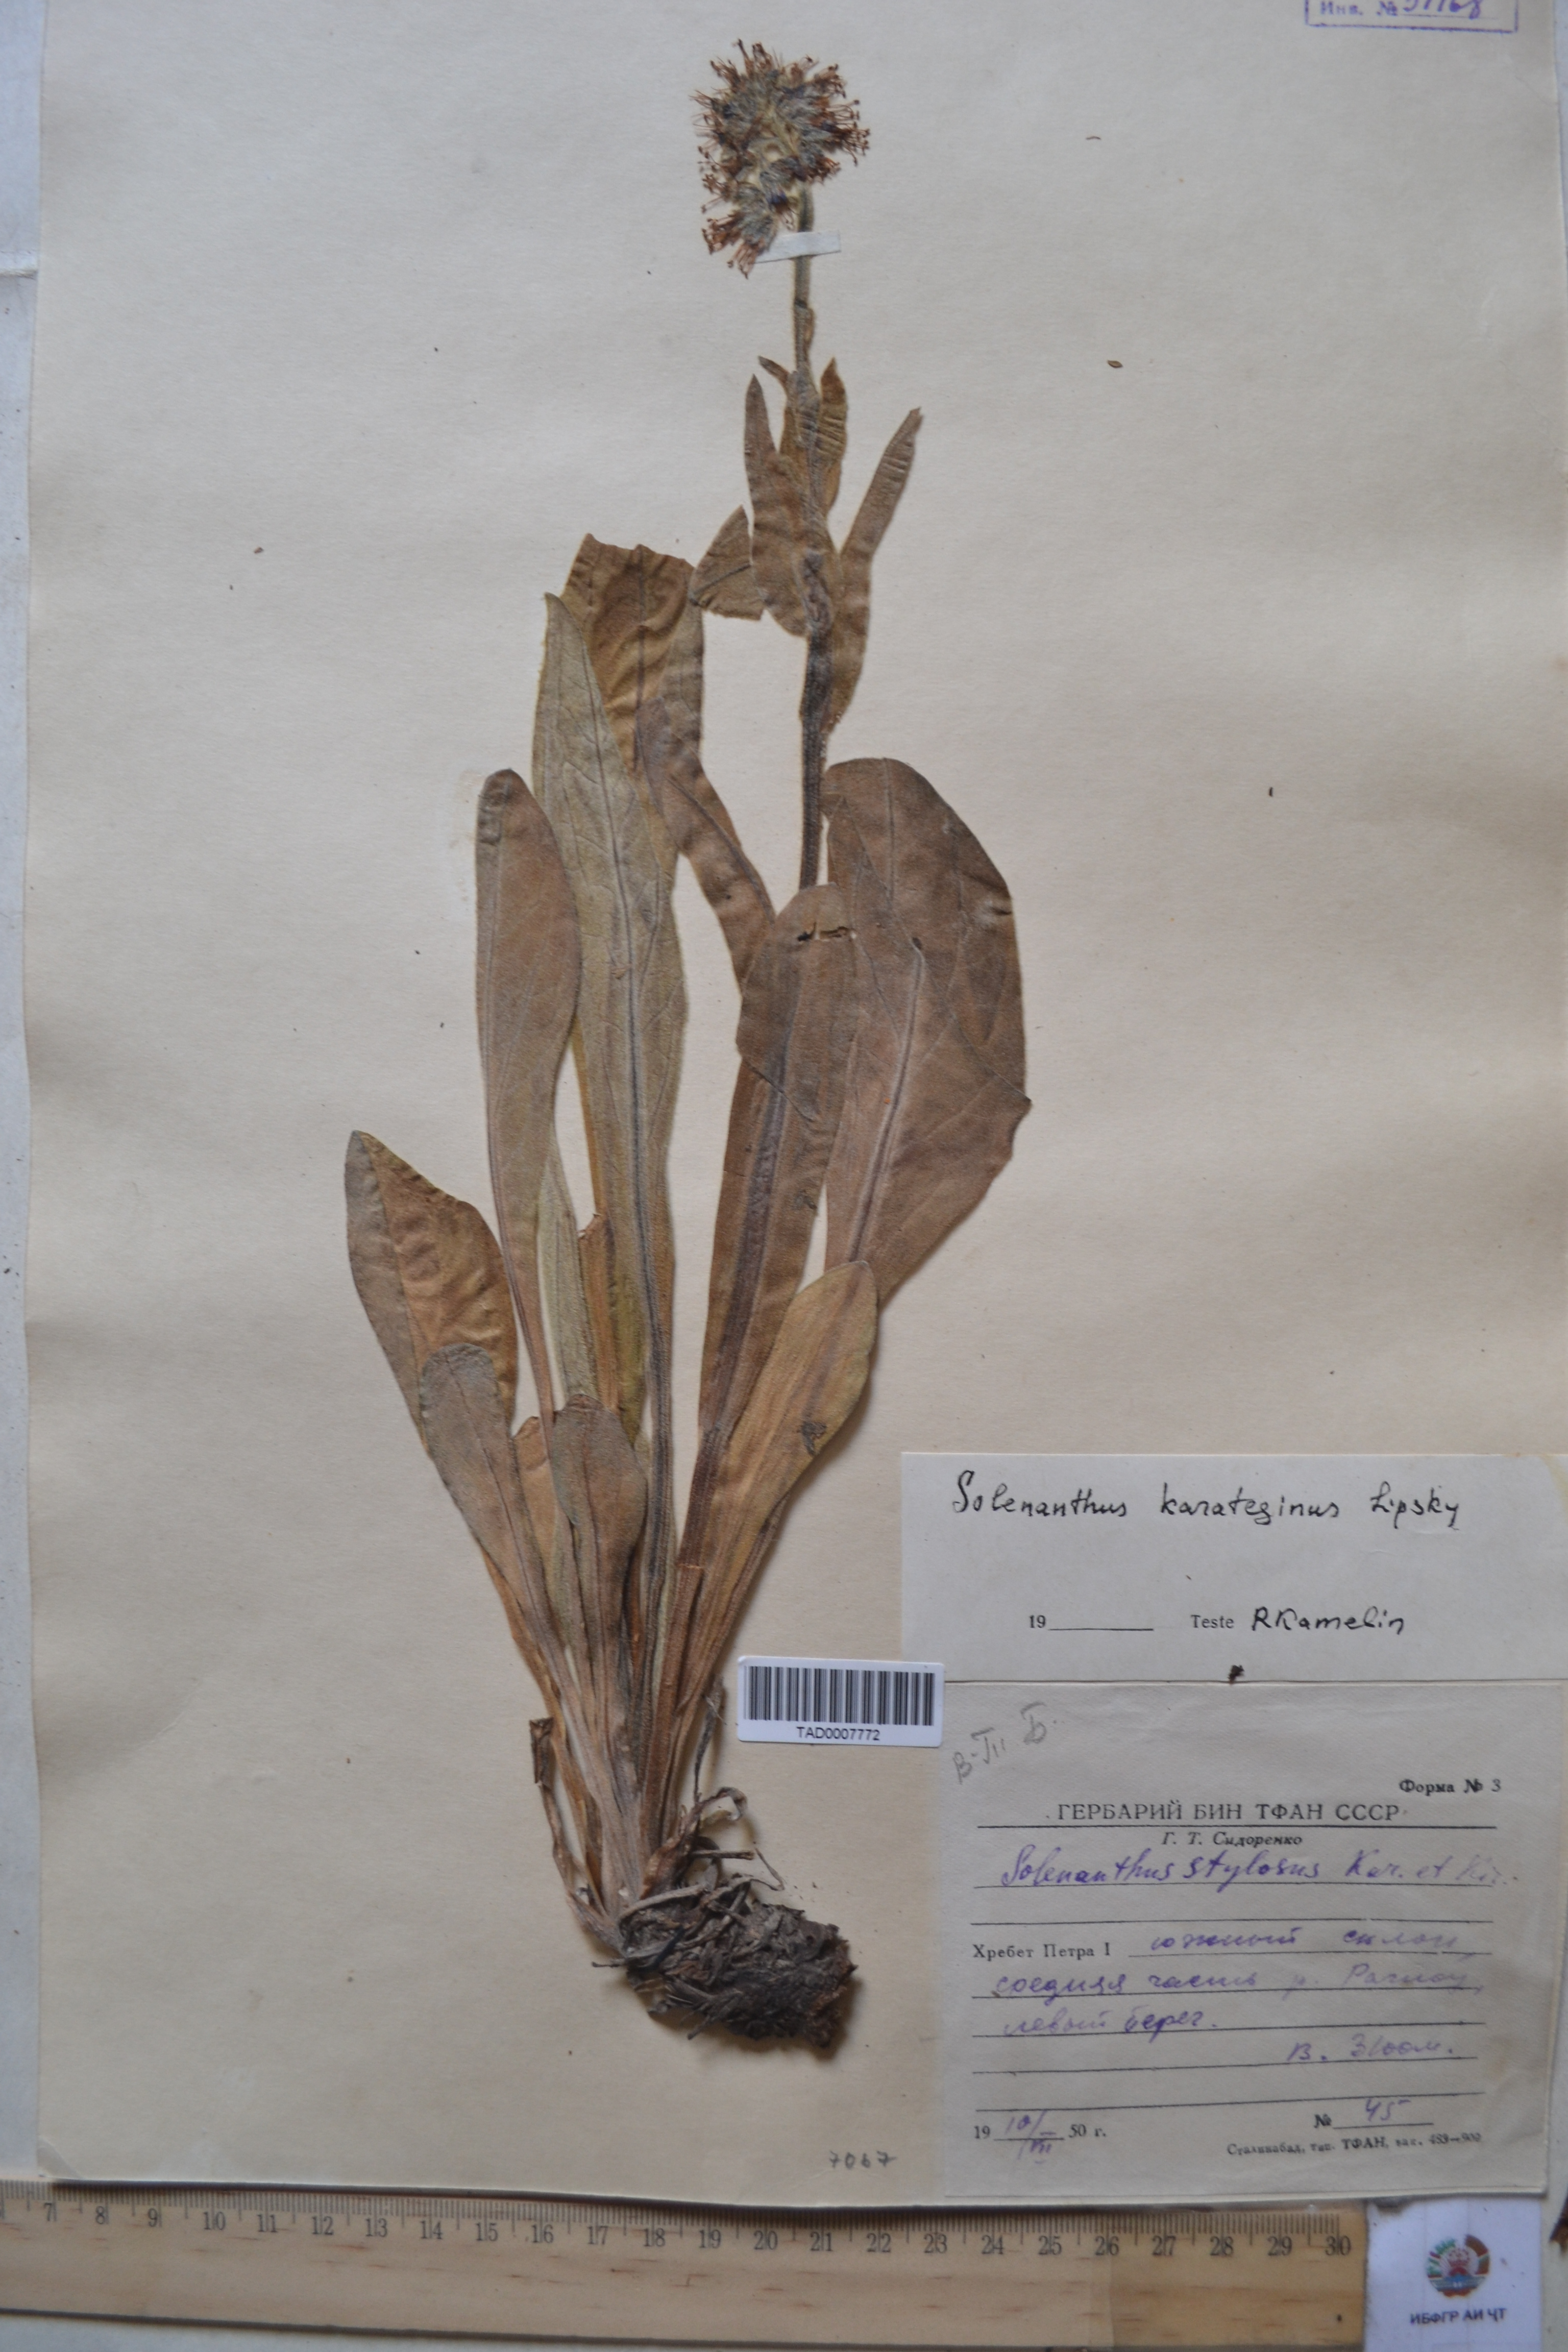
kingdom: Plantae
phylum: Tracheophyta
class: Magnoliopsida
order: Boraginales
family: Boraginaceae
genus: Solenanthus
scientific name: Solenanthus karateginus
